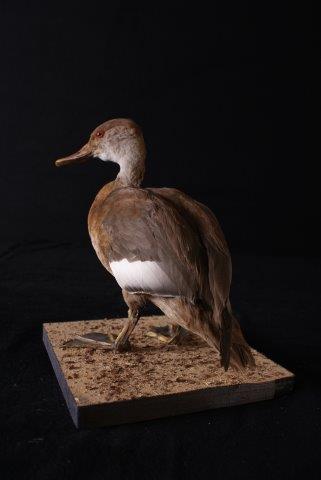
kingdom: Animalia
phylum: Chordata
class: Aves
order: Anseriformes
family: Anatidae
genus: Netta
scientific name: Netta rufina
